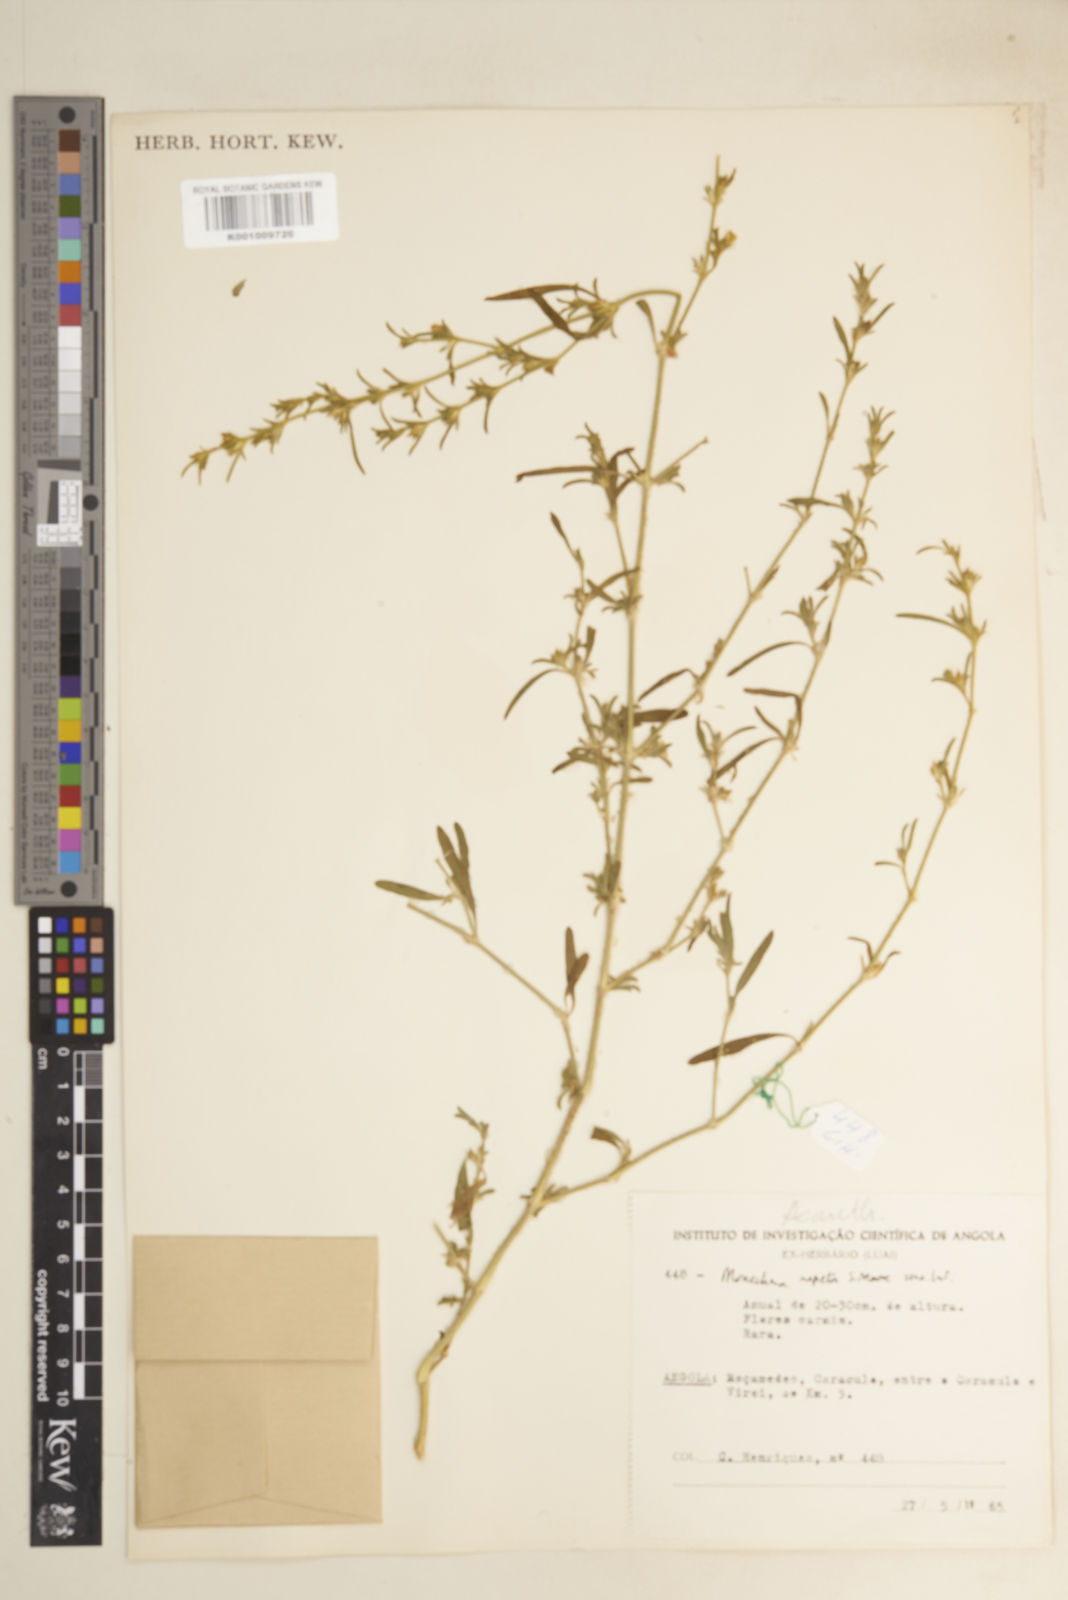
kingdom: Plantae
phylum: Tracheophyta
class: Magnoliopsida
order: Lamiales
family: Acanthaceae
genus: Pogonospermum
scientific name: Pogonospermum
